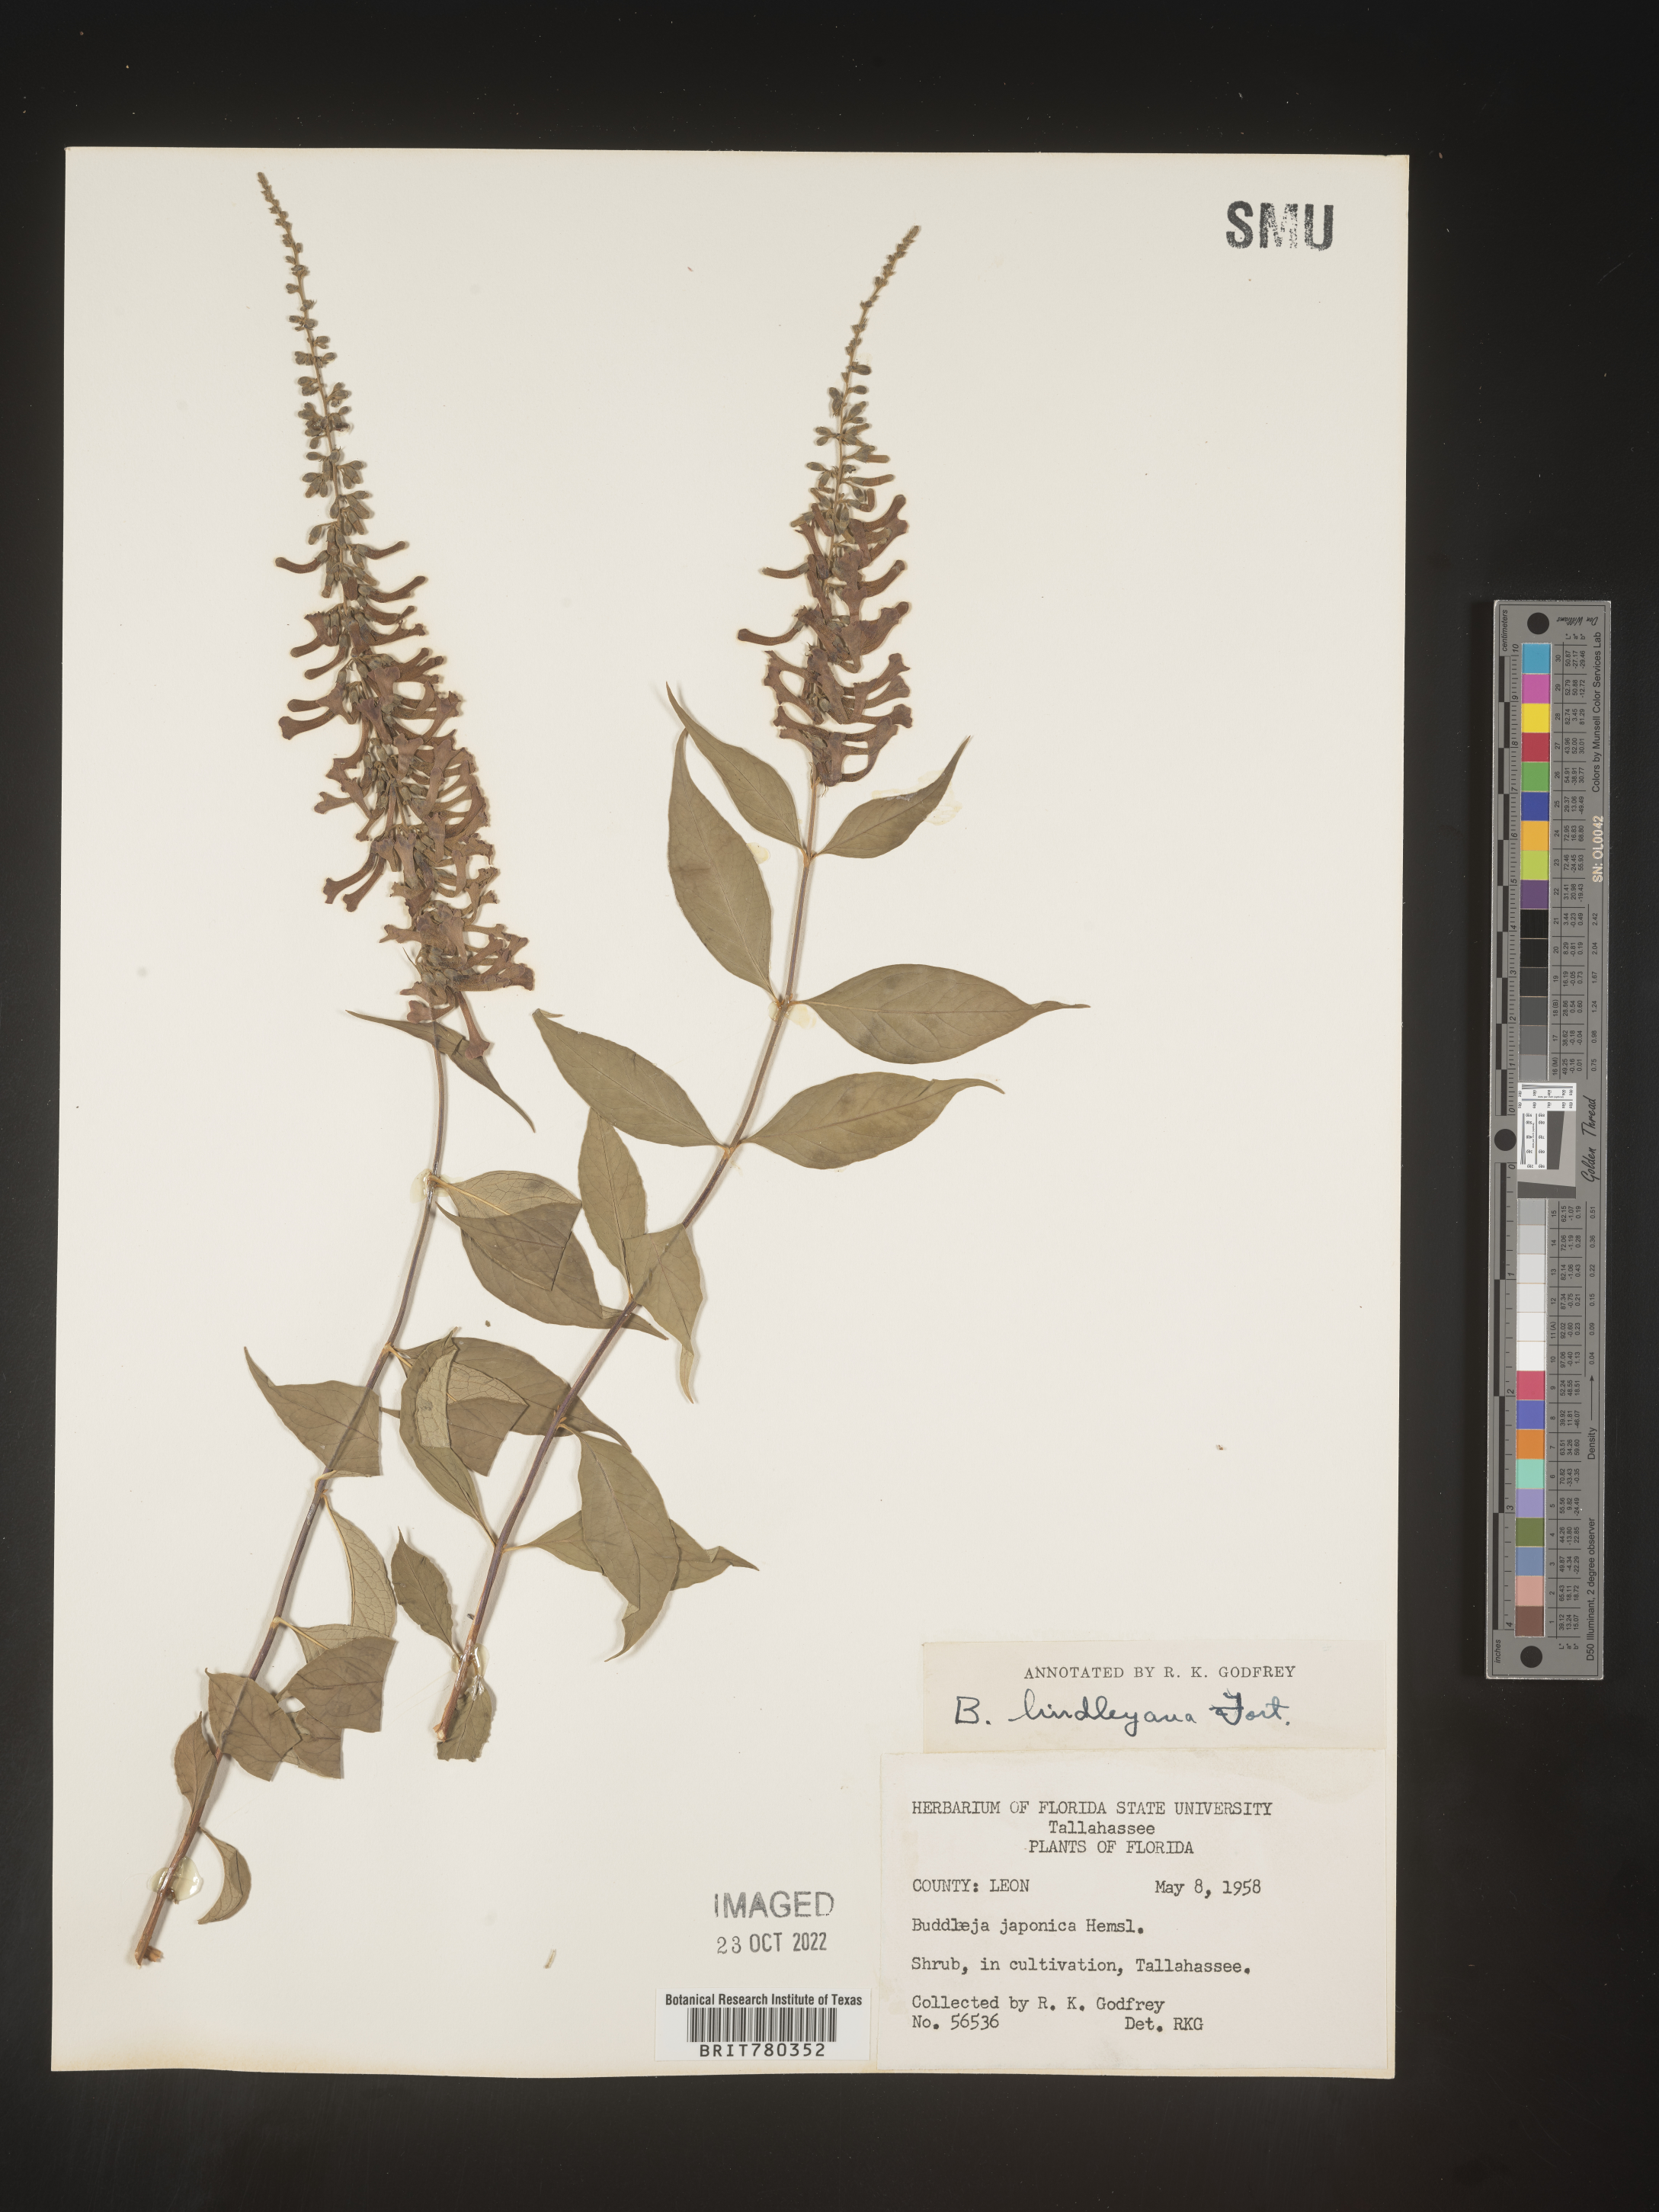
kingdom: Plantae
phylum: Tracheophyta
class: Magnoliopsida
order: Lamiales
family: Scrophulariaceae
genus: Buddleja
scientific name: Buddleja
